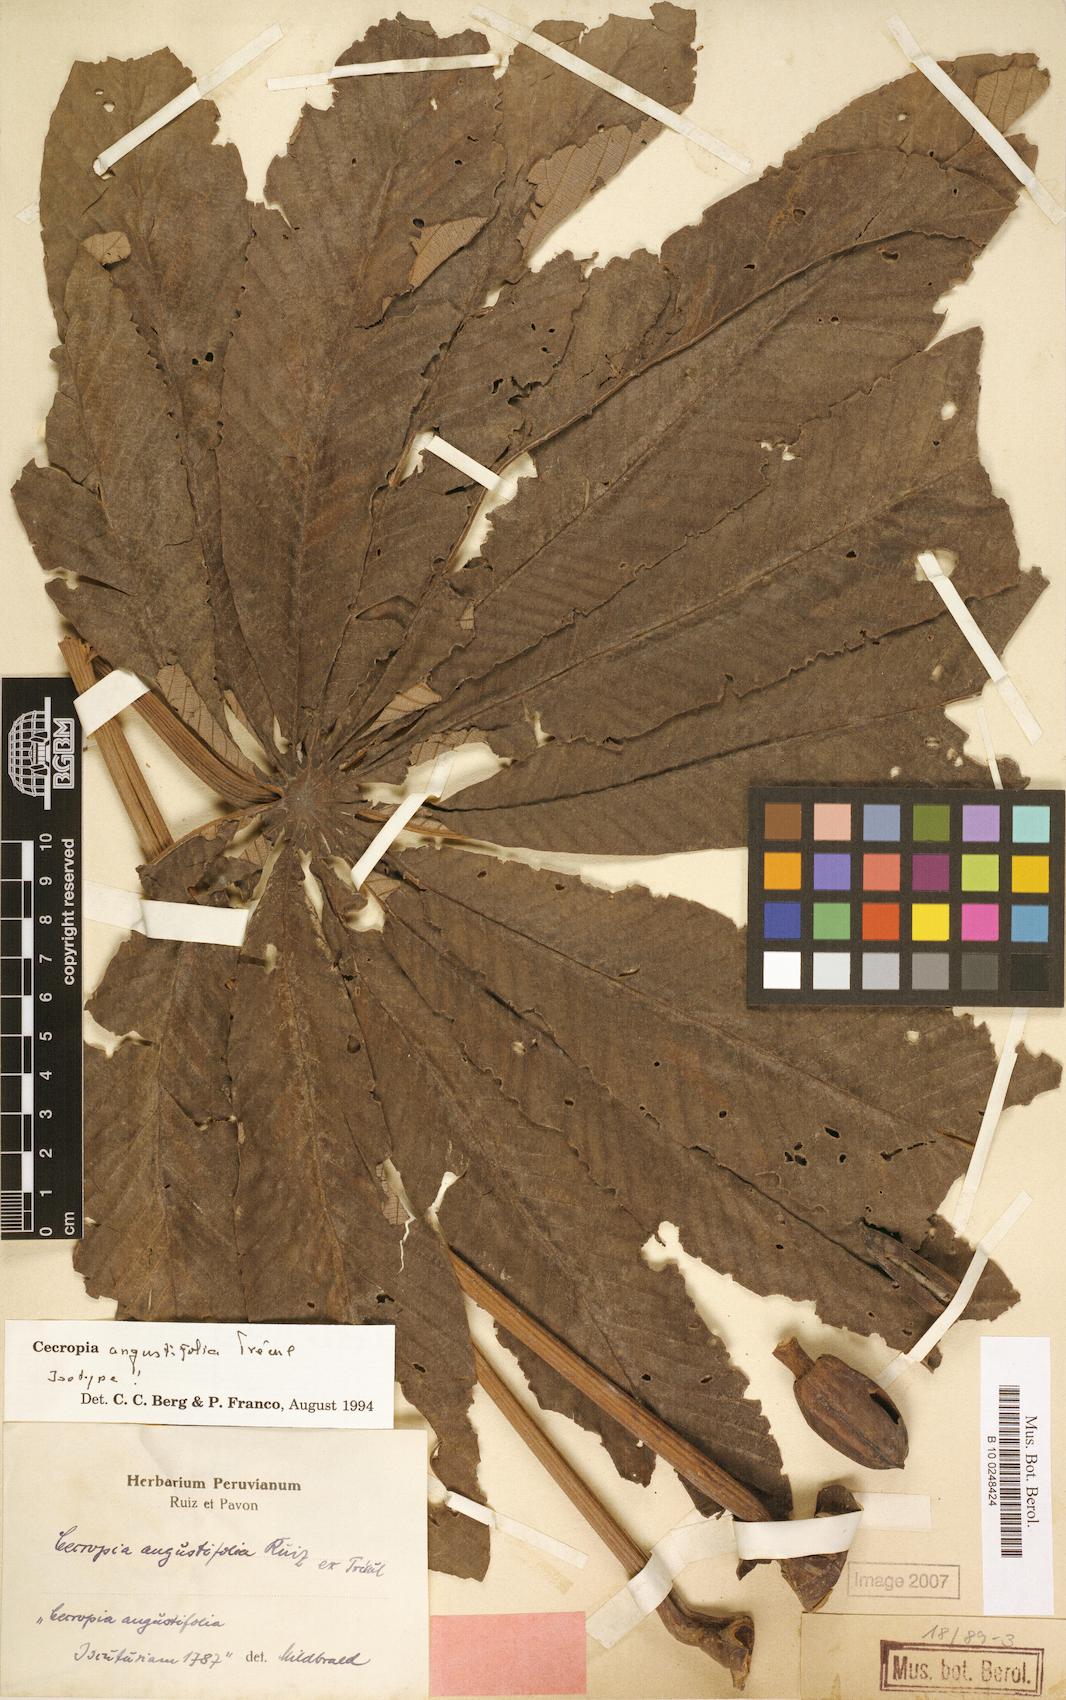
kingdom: Plantae
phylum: Tracheophyta
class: Magnoliopsida
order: Rosales
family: Urticaceae
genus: Cecropia
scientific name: Cecropia angustifolia
